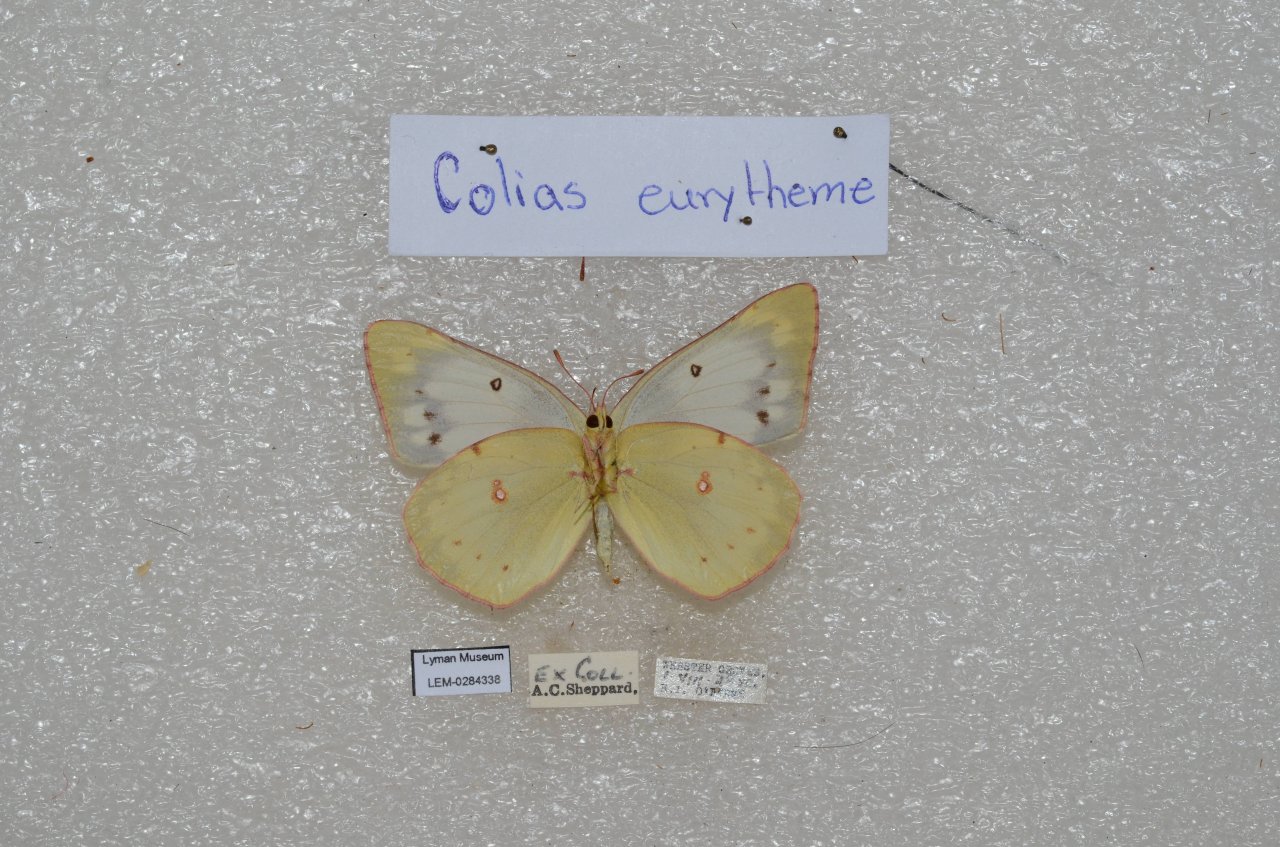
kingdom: Animalia
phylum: Arthropoda
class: Insecta
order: Lepidoptera
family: Pieridae
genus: Colias
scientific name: Colias eurytheme
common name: Orange Sulphur
